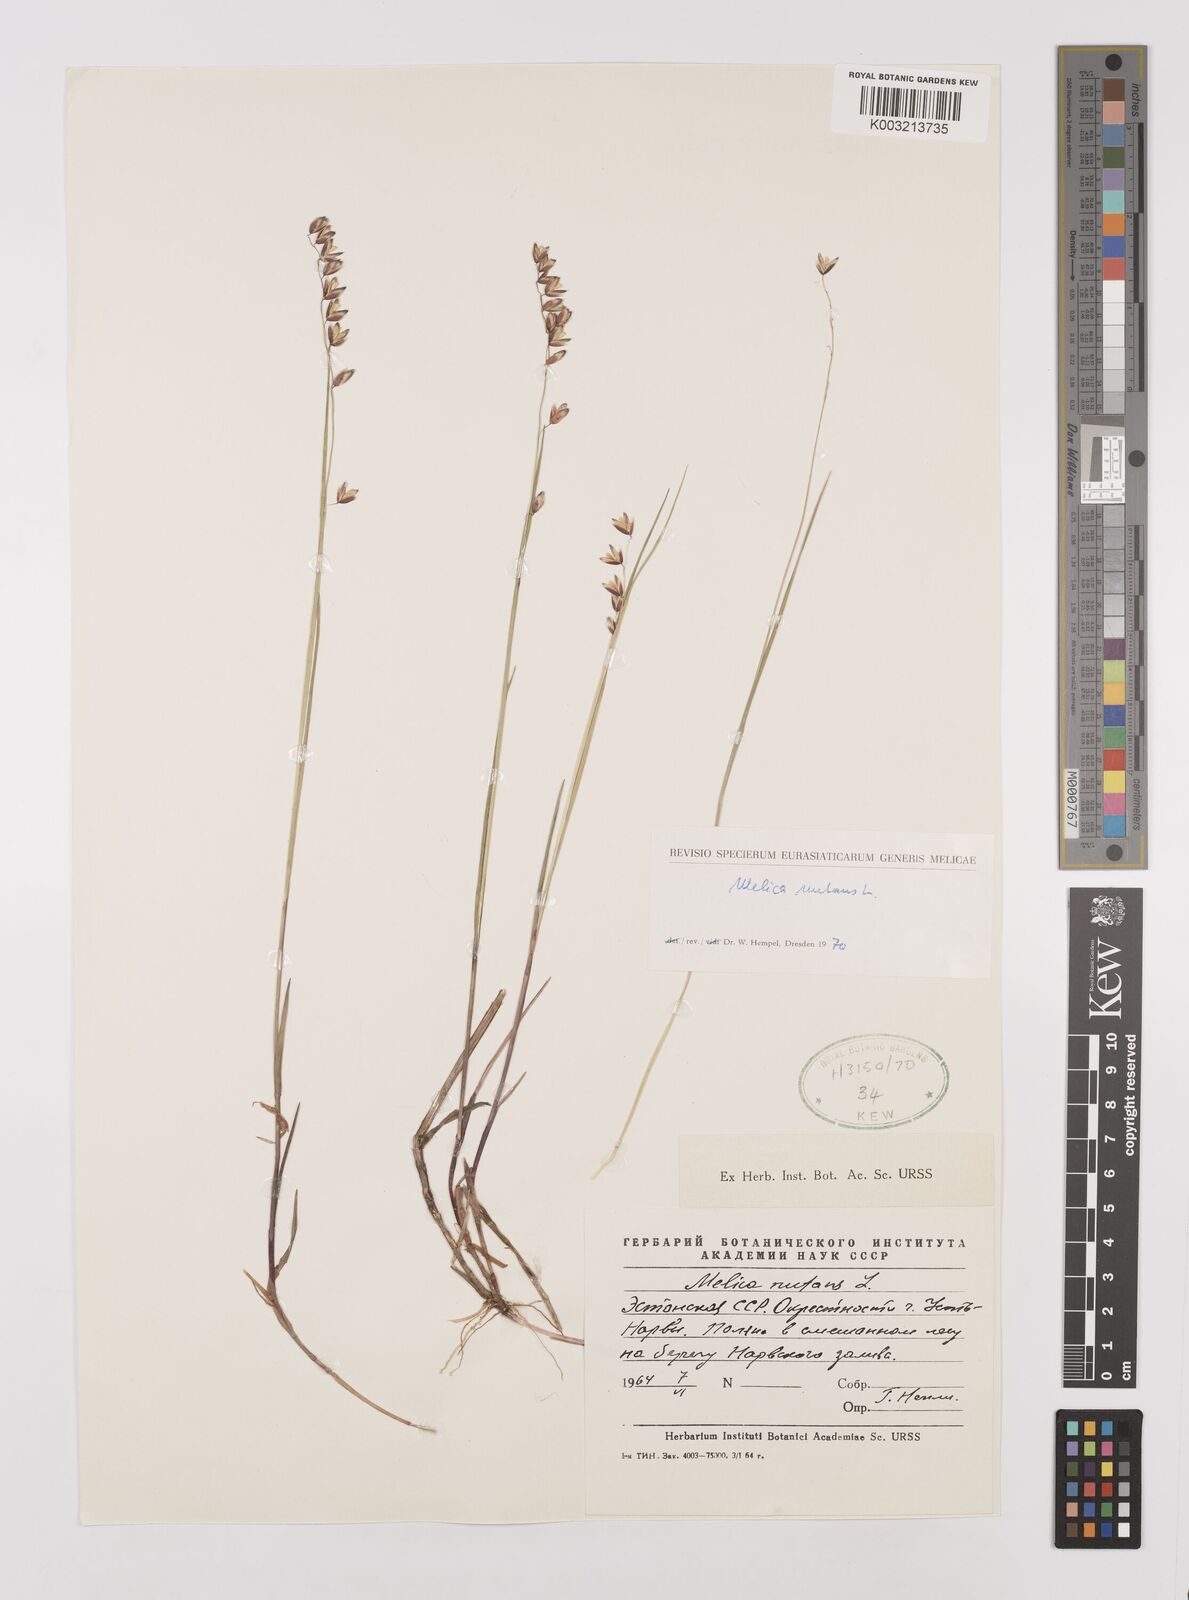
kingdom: Plantae
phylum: Tracheophyta
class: Liliopsida
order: Poales
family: Poaceae
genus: Melica
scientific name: Melica
